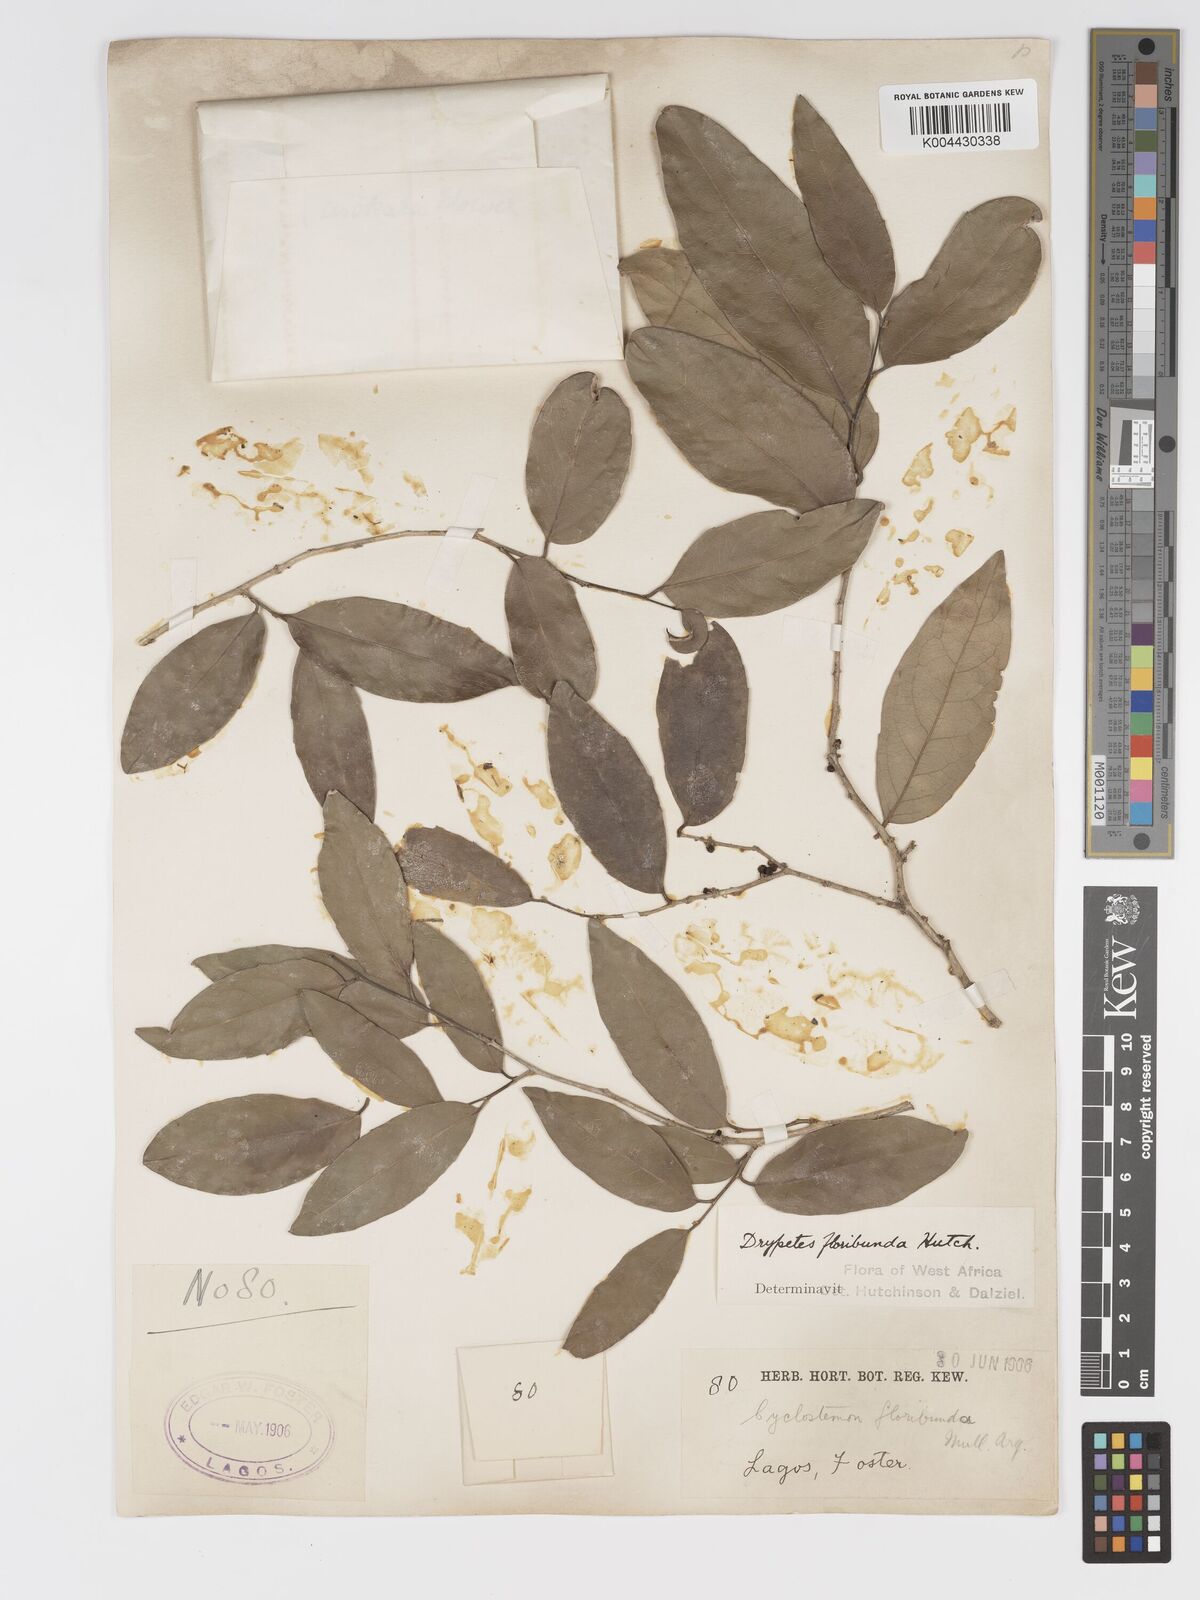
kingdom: Plantae
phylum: Tracheophyta
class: Magnoliopsida
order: Malpighiales
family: Putranjivaceae
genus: Drypetes
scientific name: Drypetes floribunda
